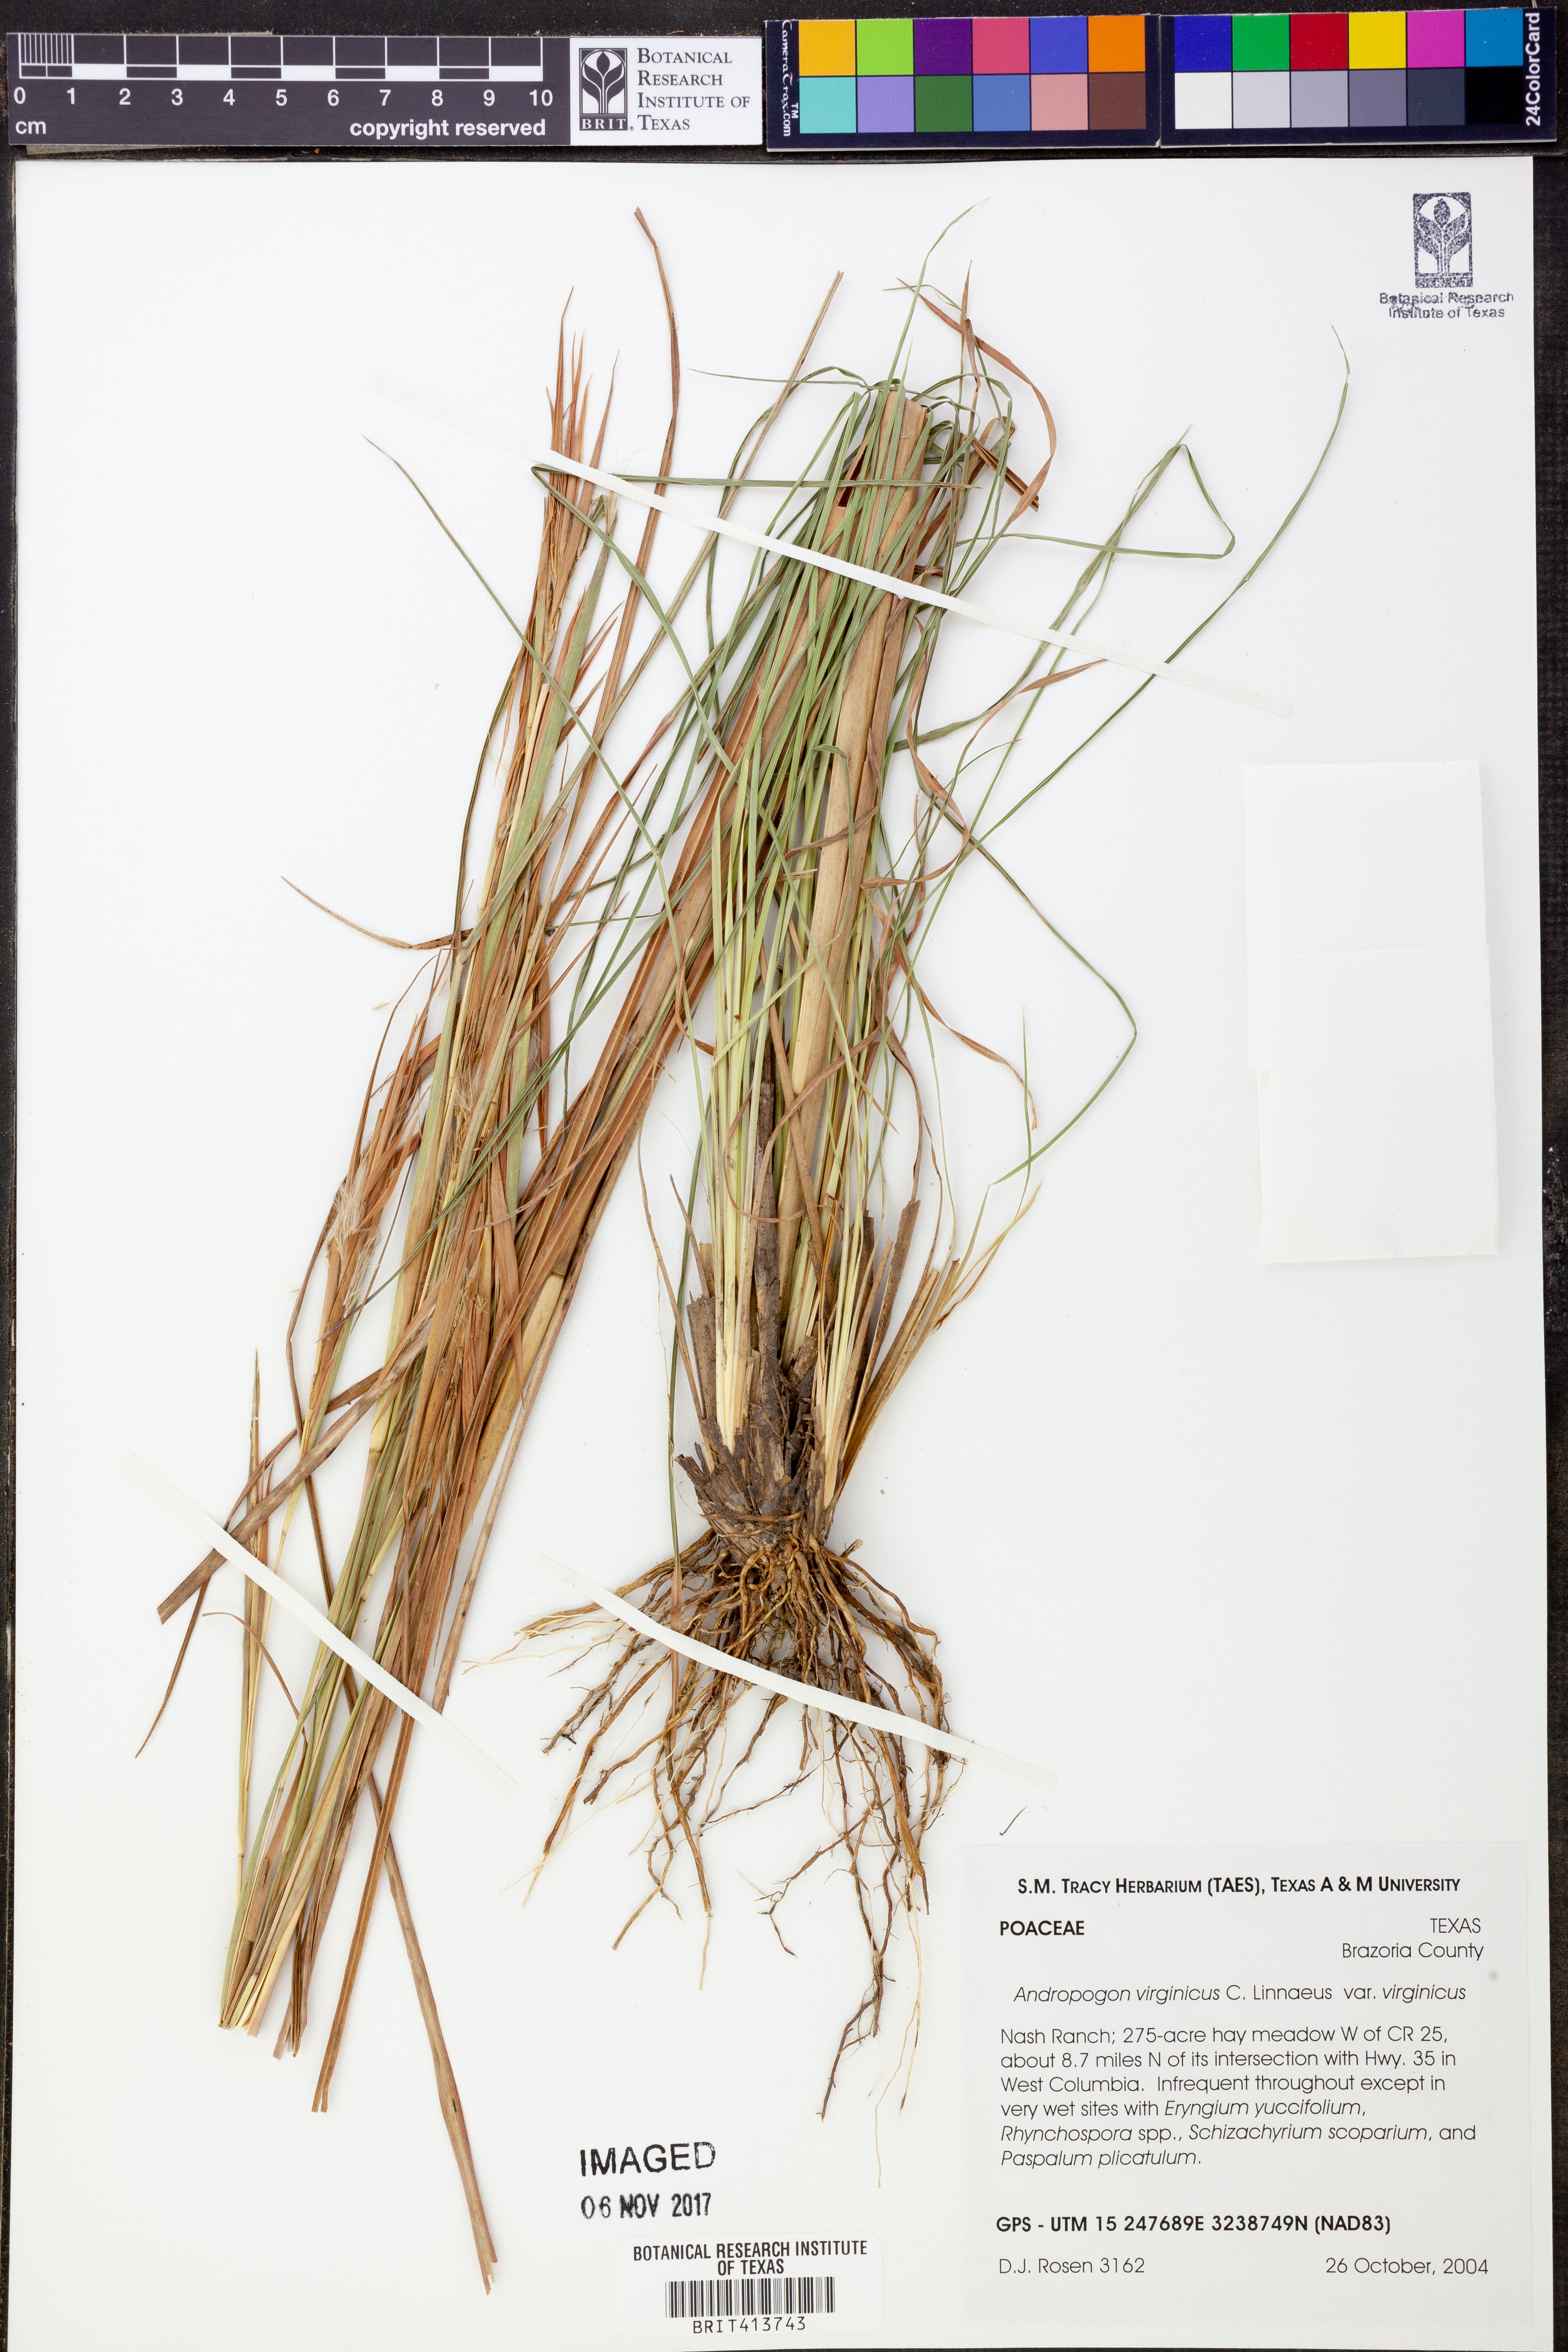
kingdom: Plantae
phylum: Tracheophyta
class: Liliopsida
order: Poales
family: Poaceae
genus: Andropogon
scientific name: Andropogon virginicus
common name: Broomsedge bluestem
